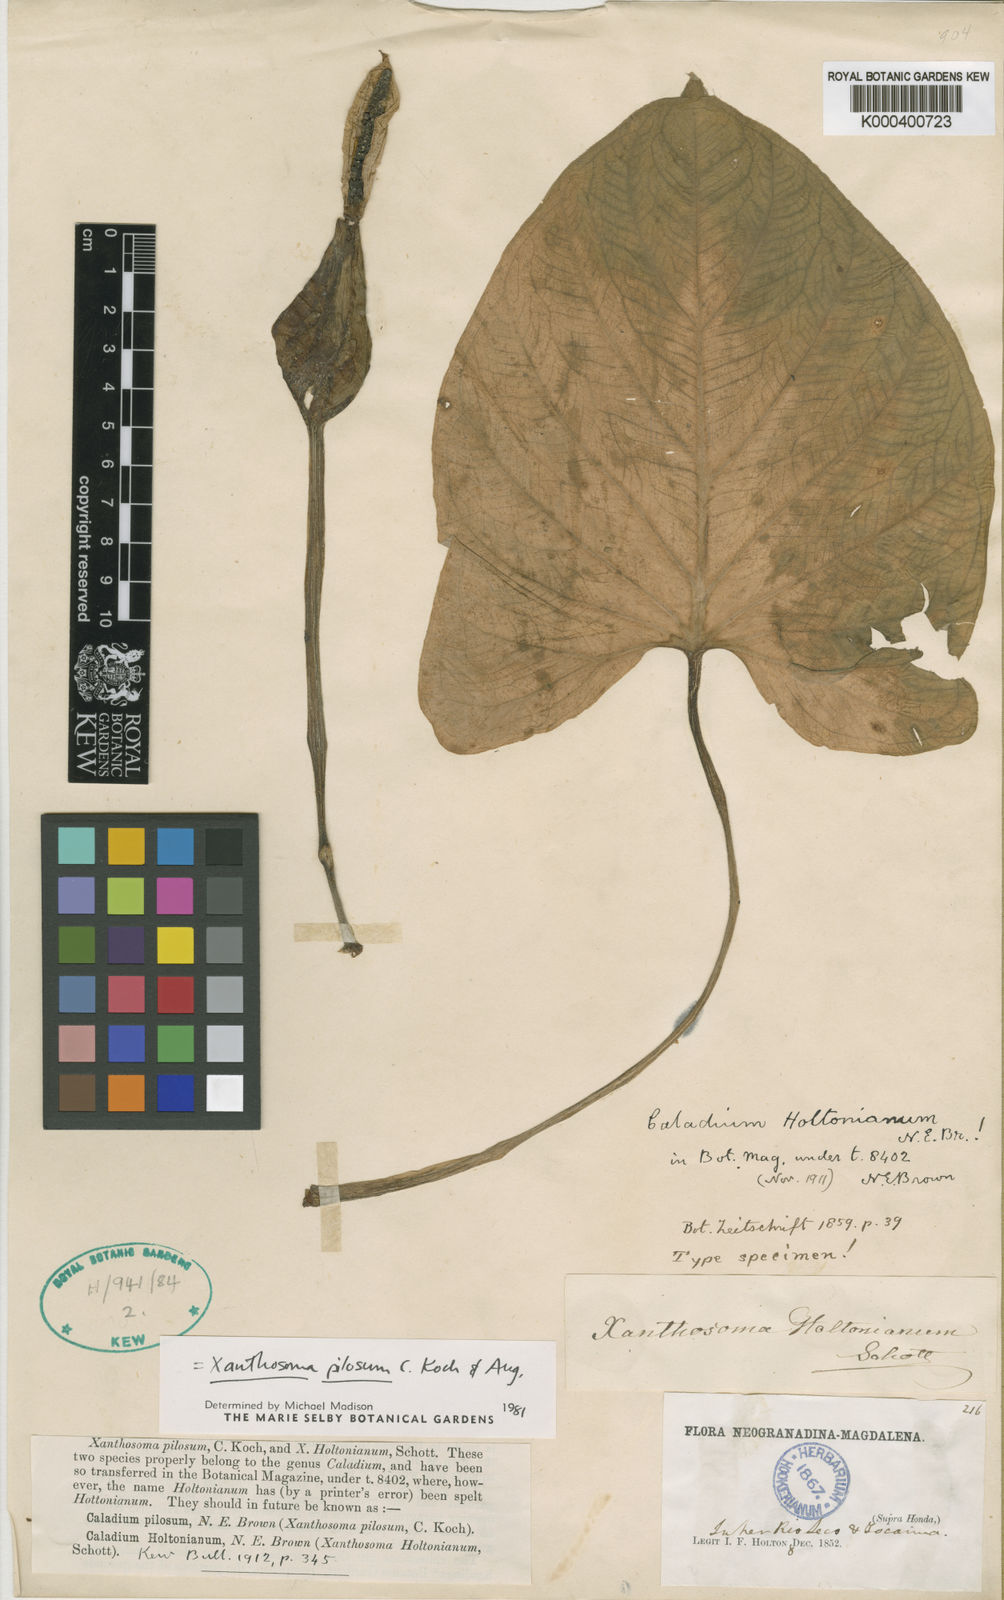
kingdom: Plantae
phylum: Tracheophyta
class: Liliopsida
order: Alismatales
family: Araceae
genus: Xanthosoma
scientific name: Xanthosoma mexicanum
